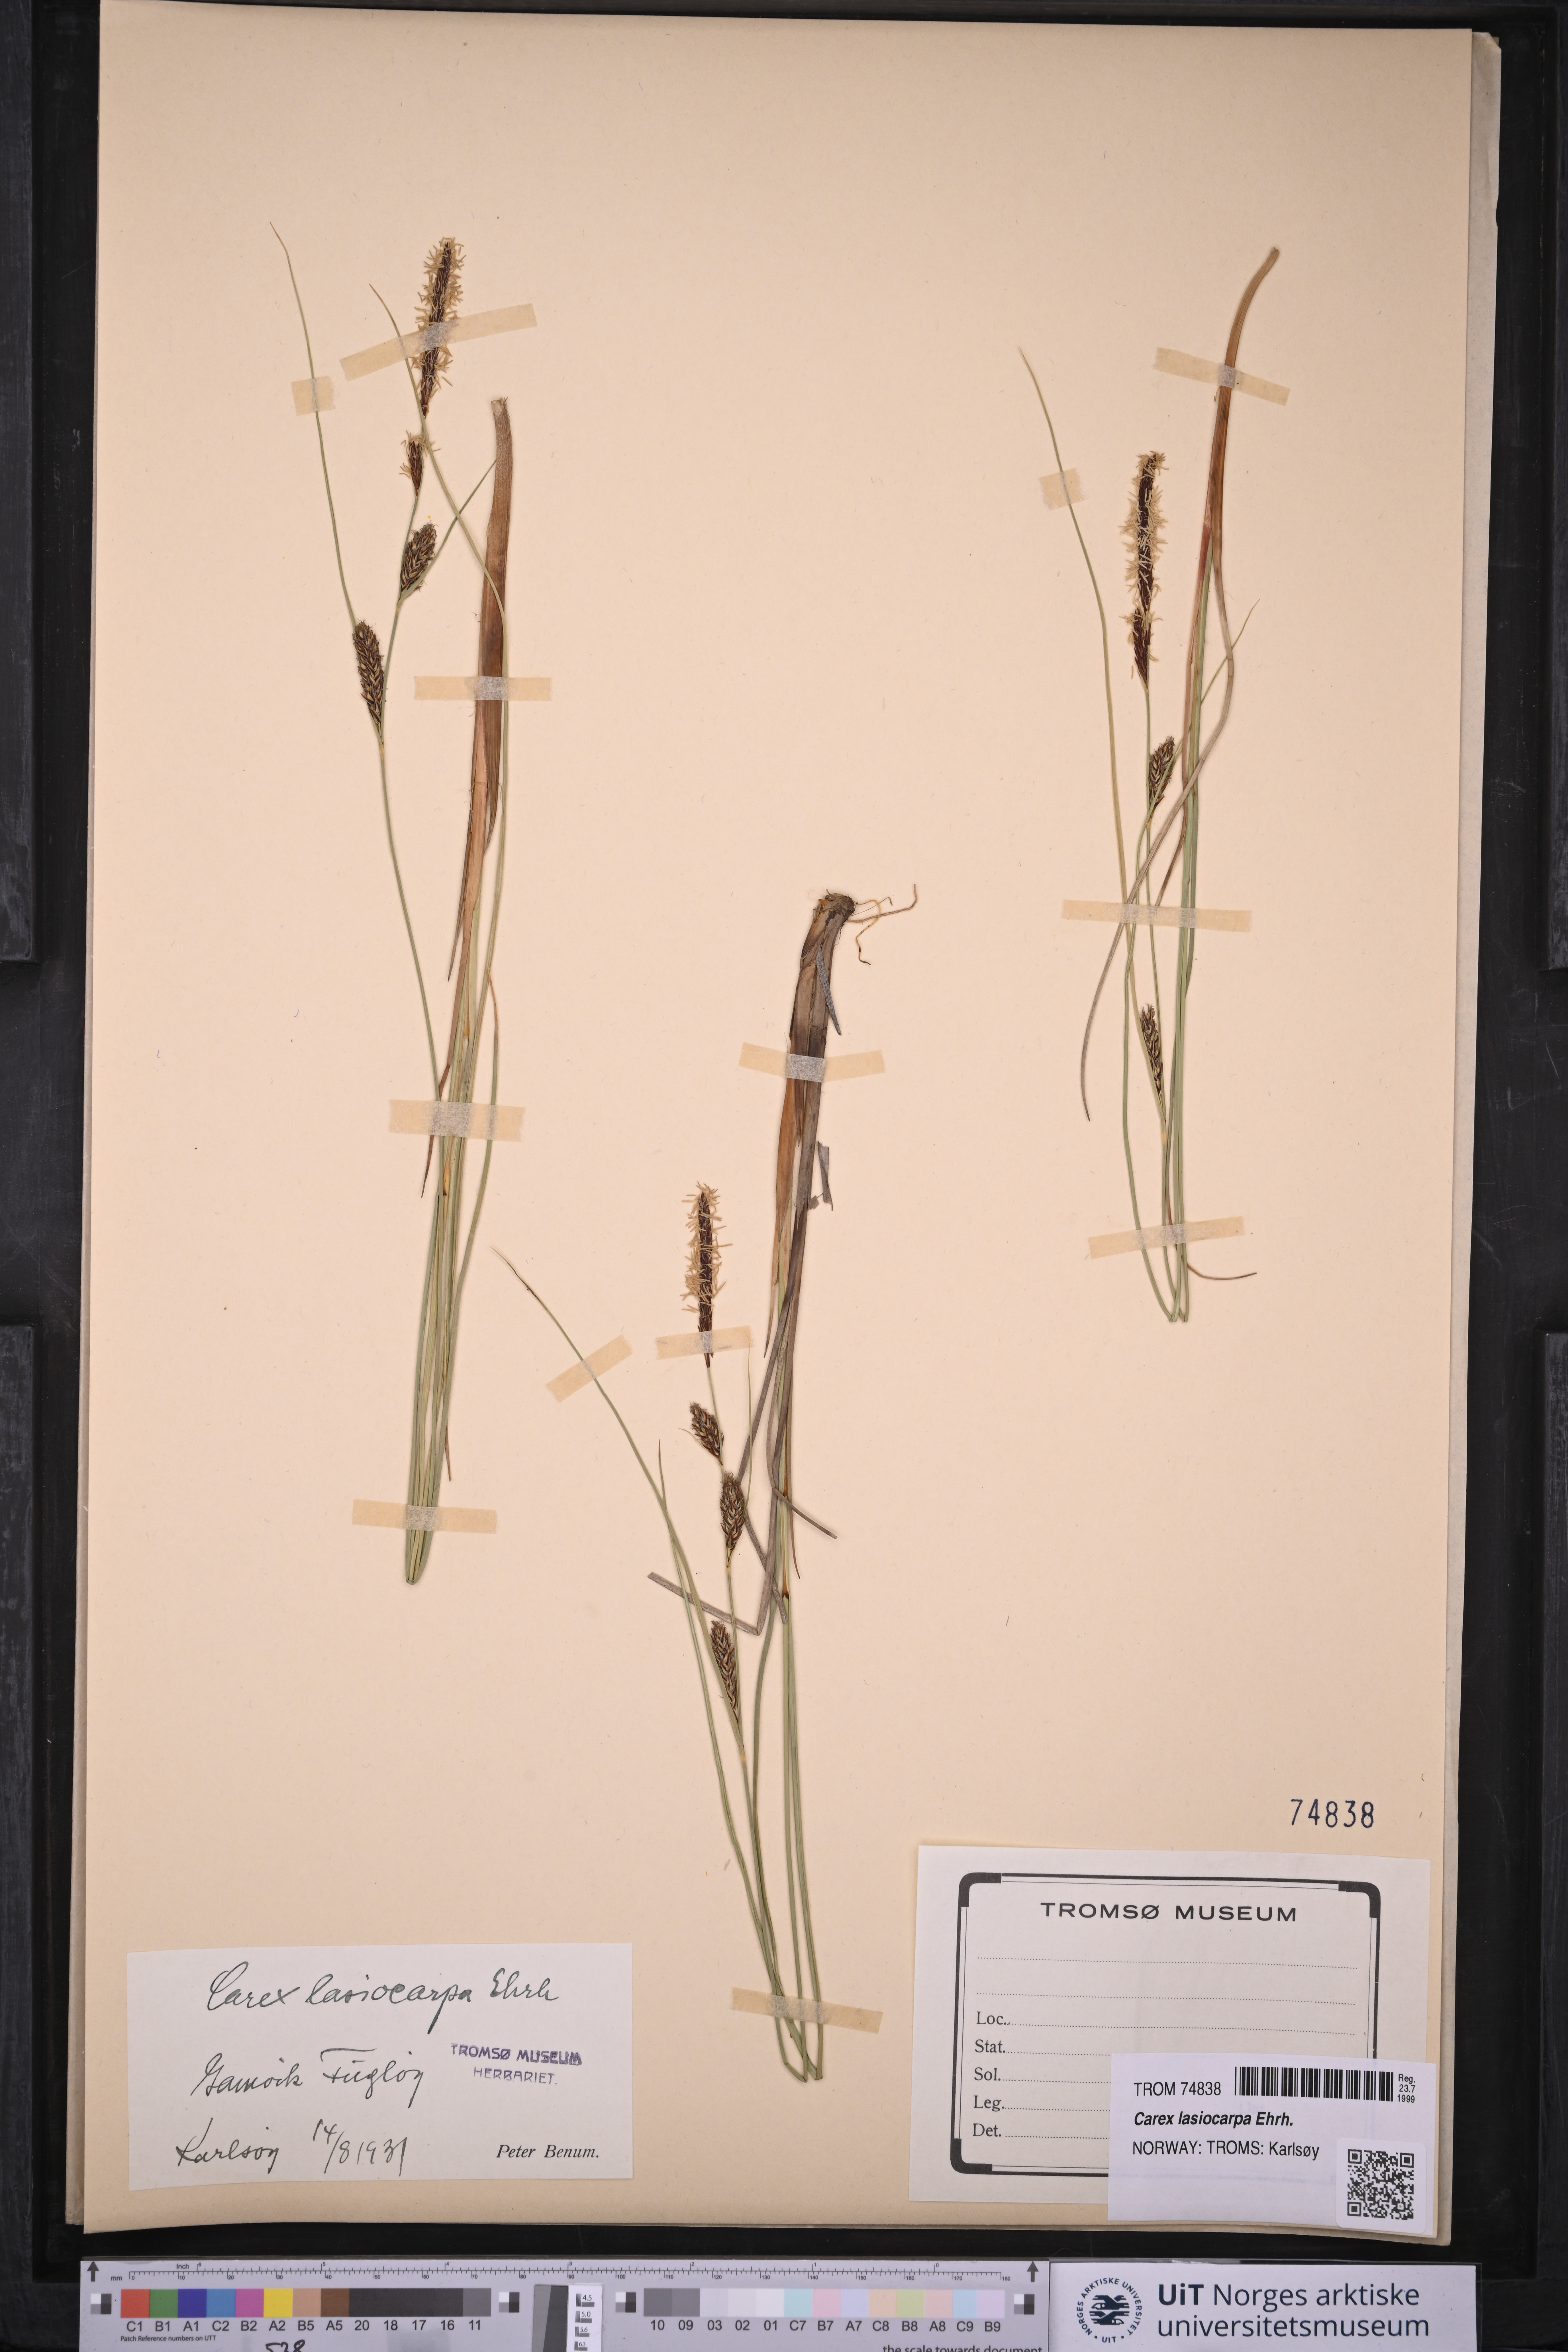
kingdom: Plantae
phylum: Tracheophyta
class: Liliopsida
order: Poales
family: Cyperaceae
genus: Carex
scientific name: Carex lasiocarpa
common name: Slender sedge
